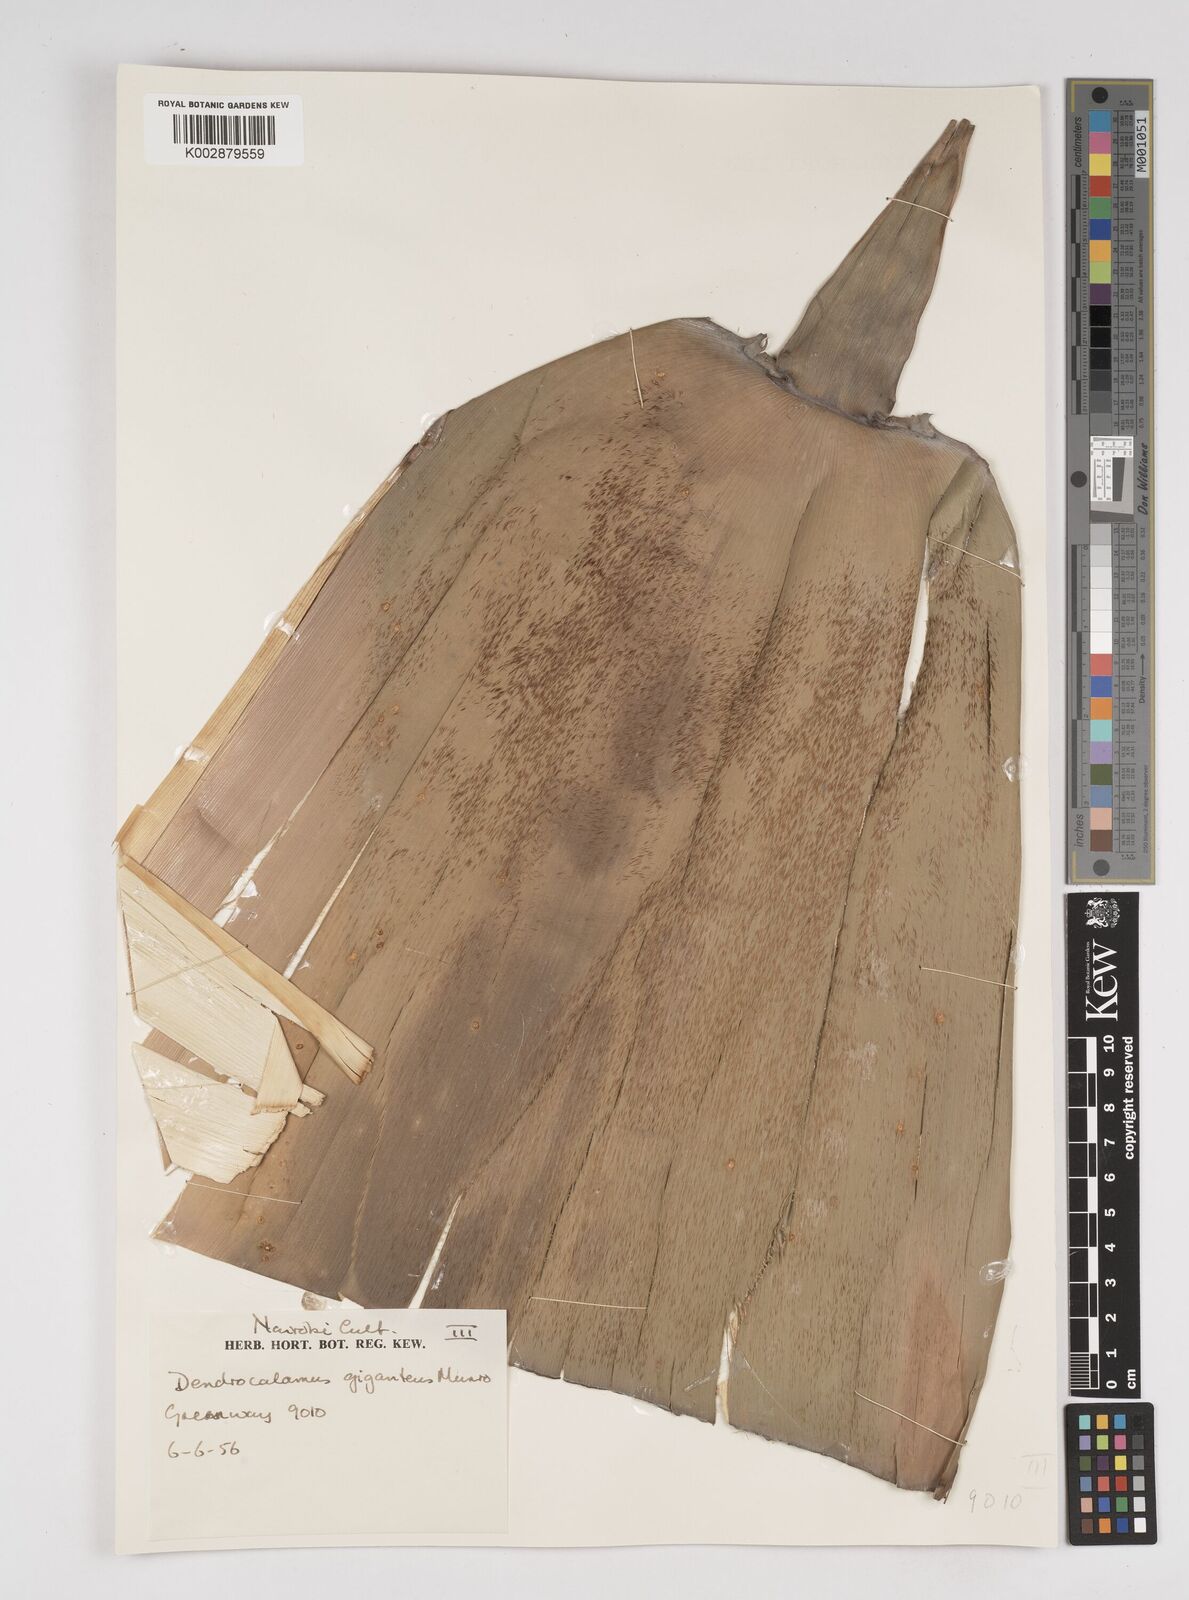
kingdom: Plantae
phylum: Tracheophyta
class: Liliopsida
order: Poales
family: Poaceae
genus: Dendrocalamus
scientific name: Dendrocalamus giganteus
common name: Giant bamboo
